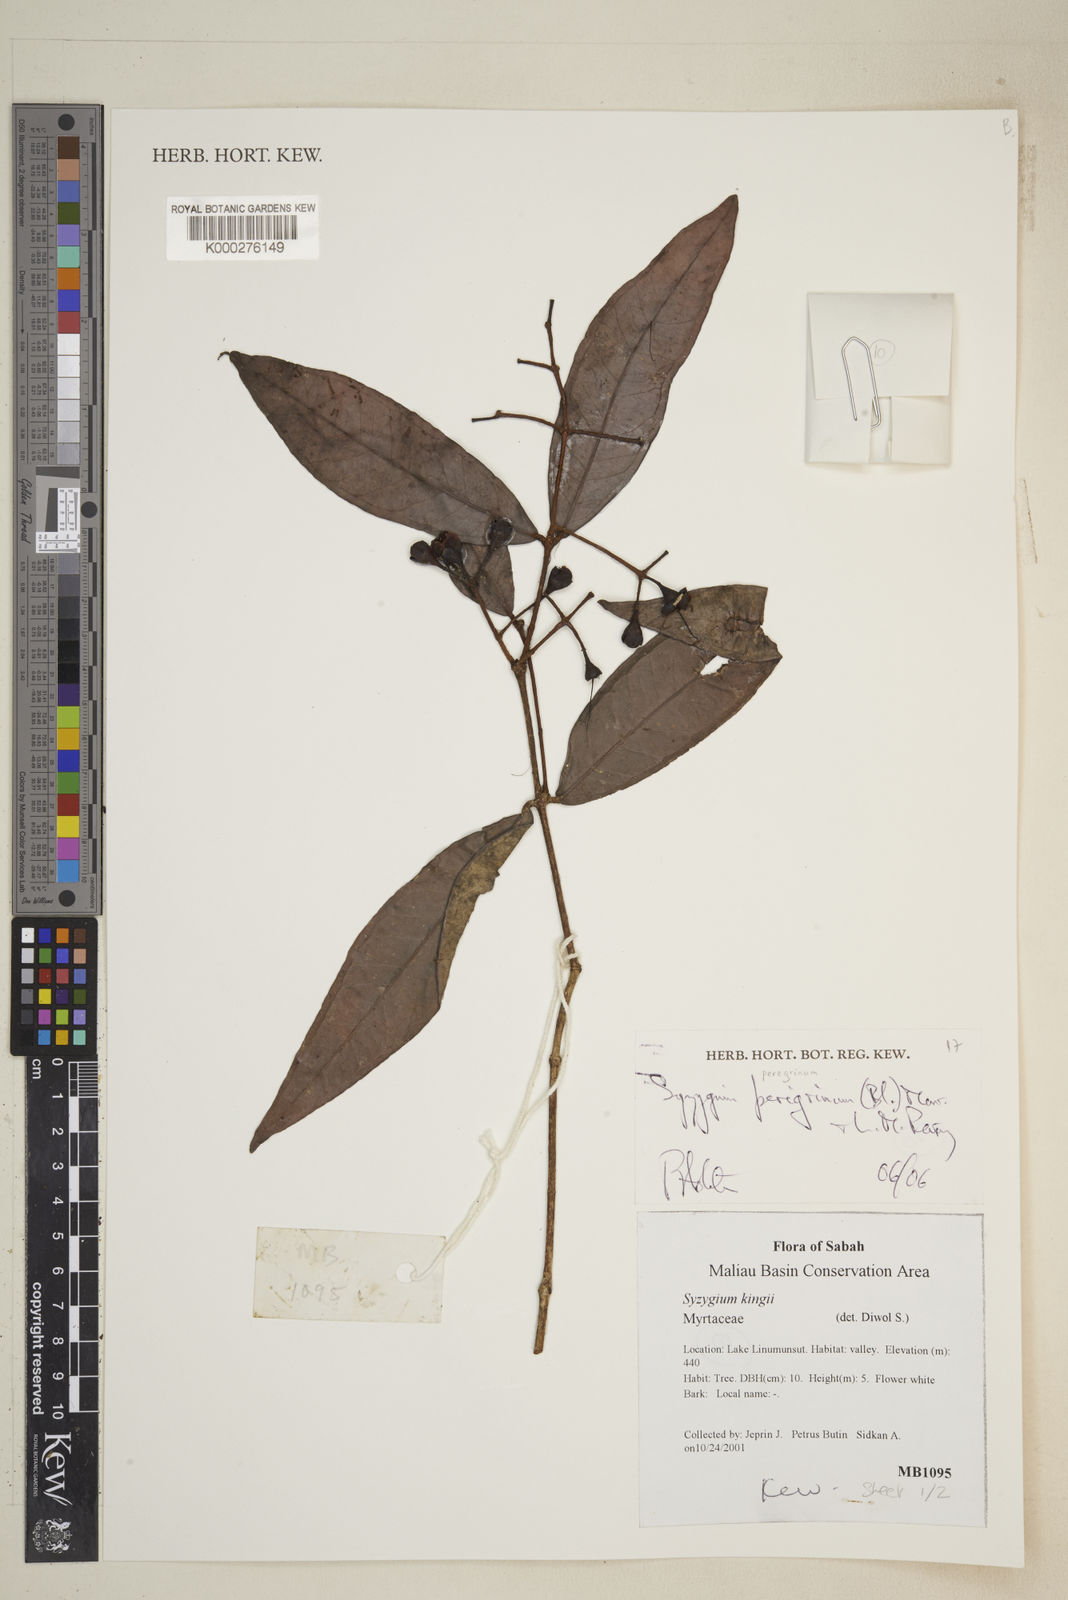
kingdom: Plantae
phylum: Tracheophyta
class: Magnoliopsida
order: Myrtales
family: Myrtaceae
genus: Syzygium
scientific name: Syzygium peregrinum
